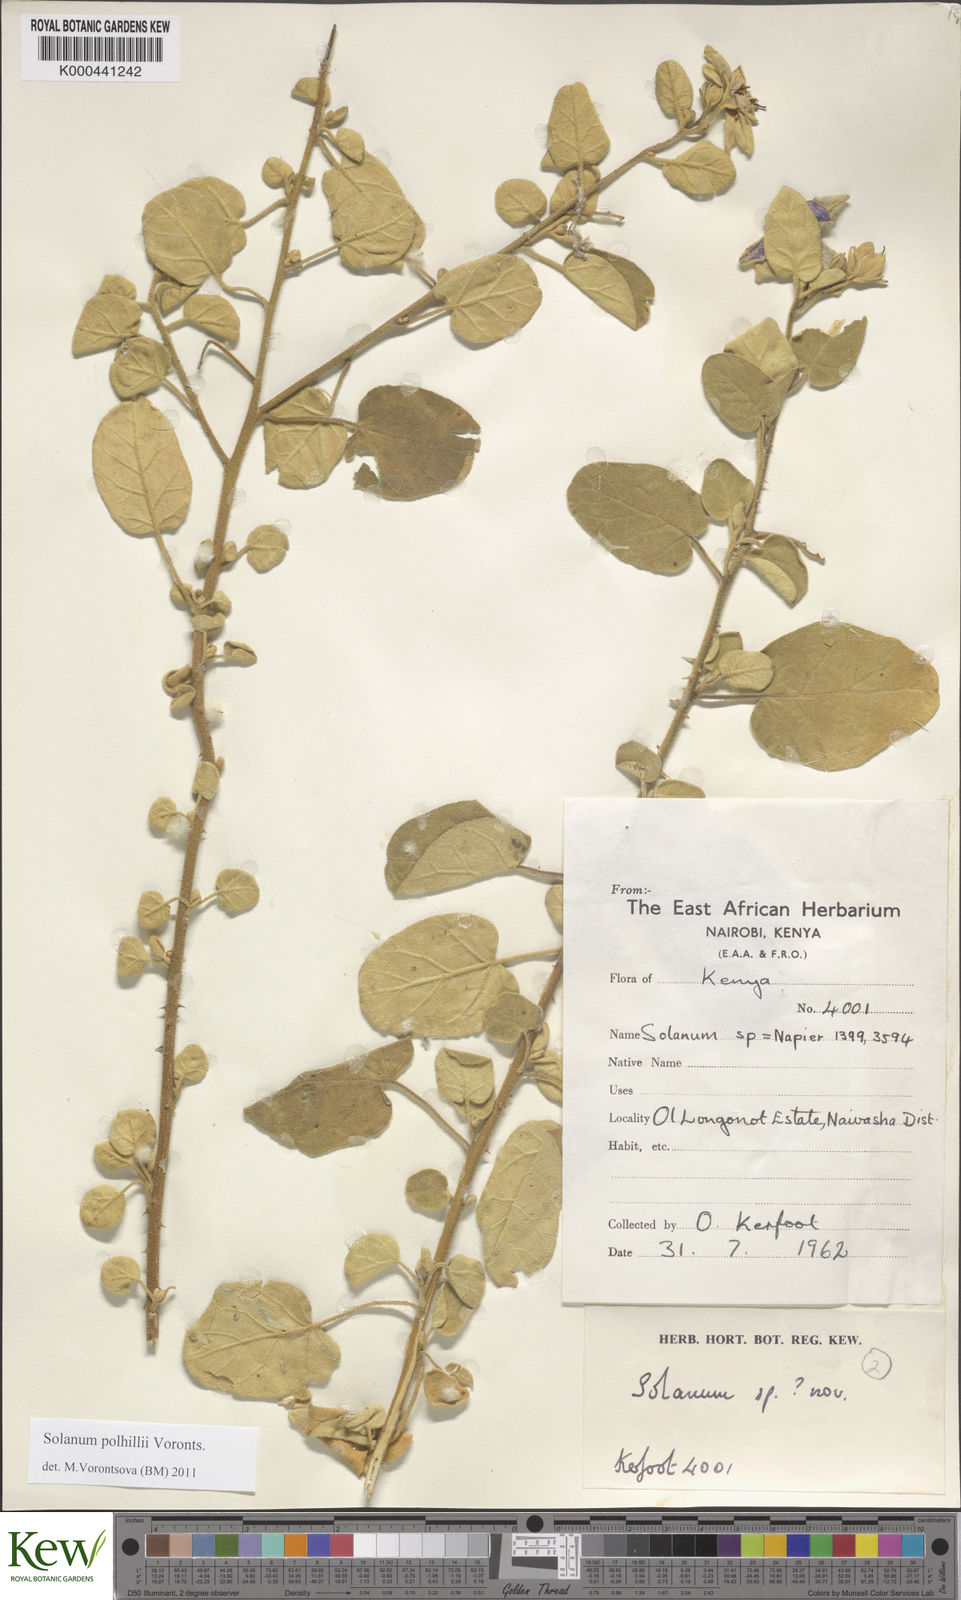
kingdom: Plantae
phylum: Tracheophyta
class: Magnoliopsida
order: Solanales
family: Solanaceae
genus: Solanum
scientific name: Solanum polhillii
